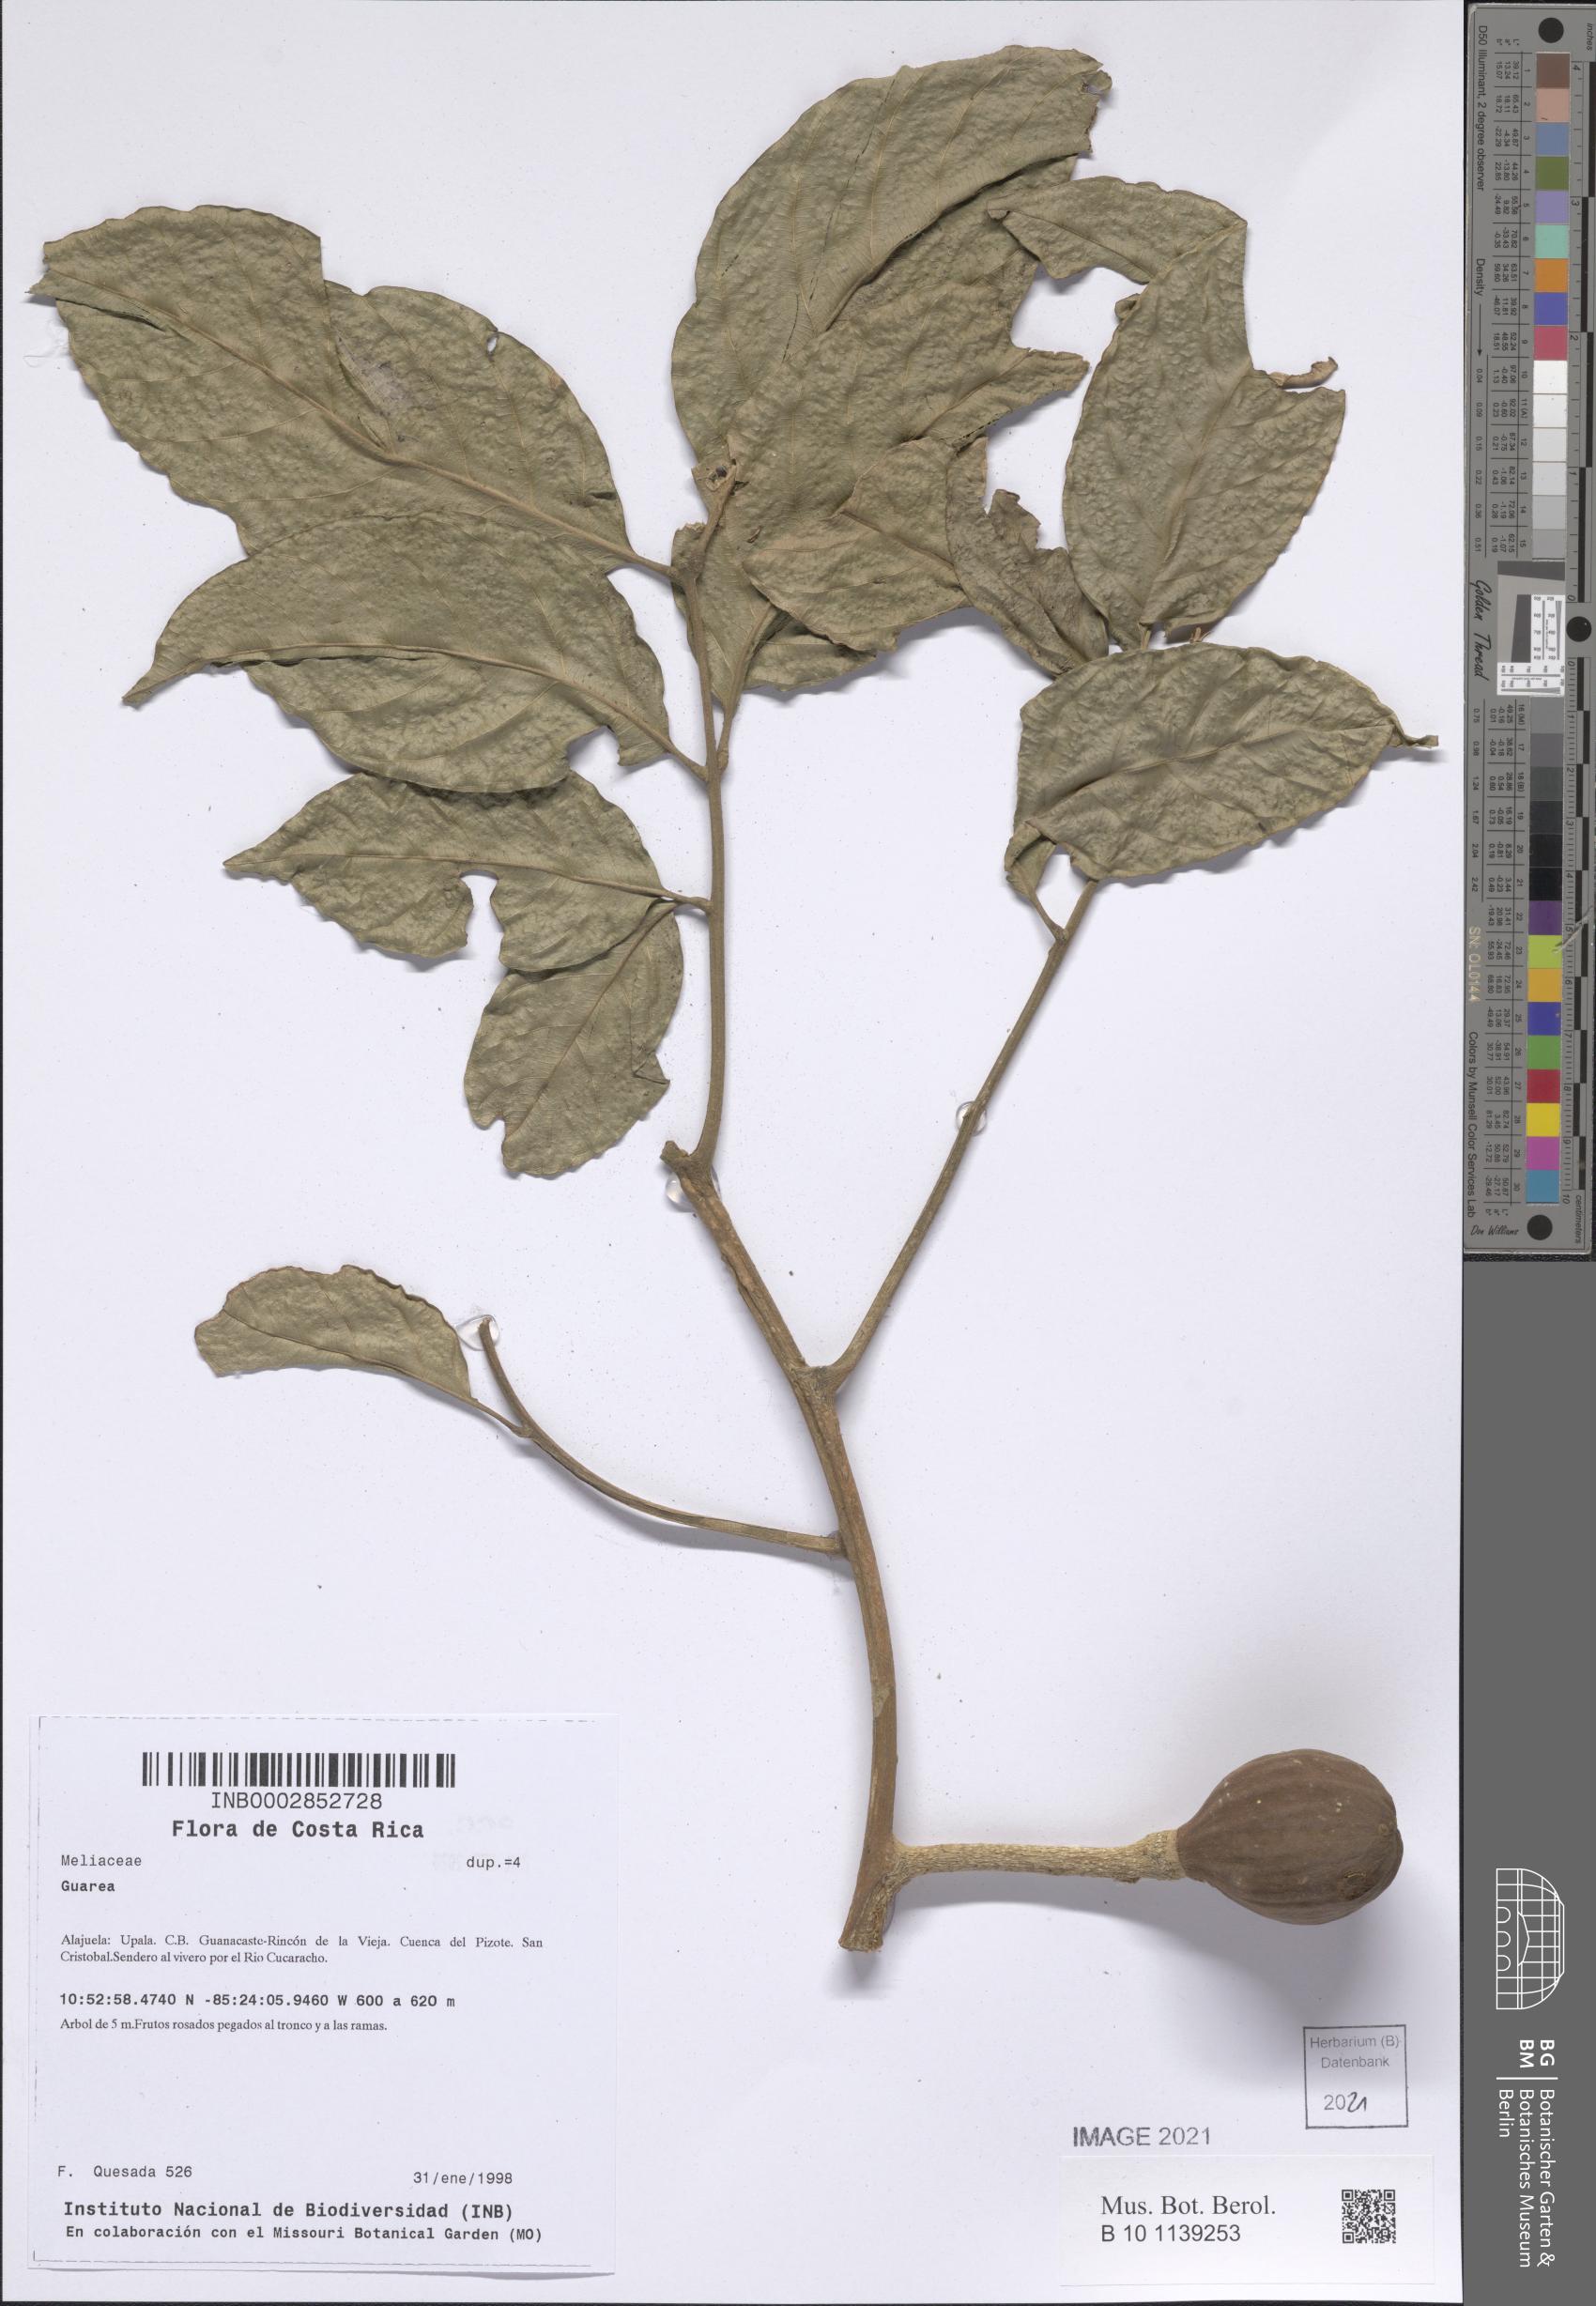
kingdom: Plantae
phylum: Tracheophyta
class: Magnoliopsida
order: Sapindales
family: Meliaceae
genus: Guarea
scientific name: Guarea
